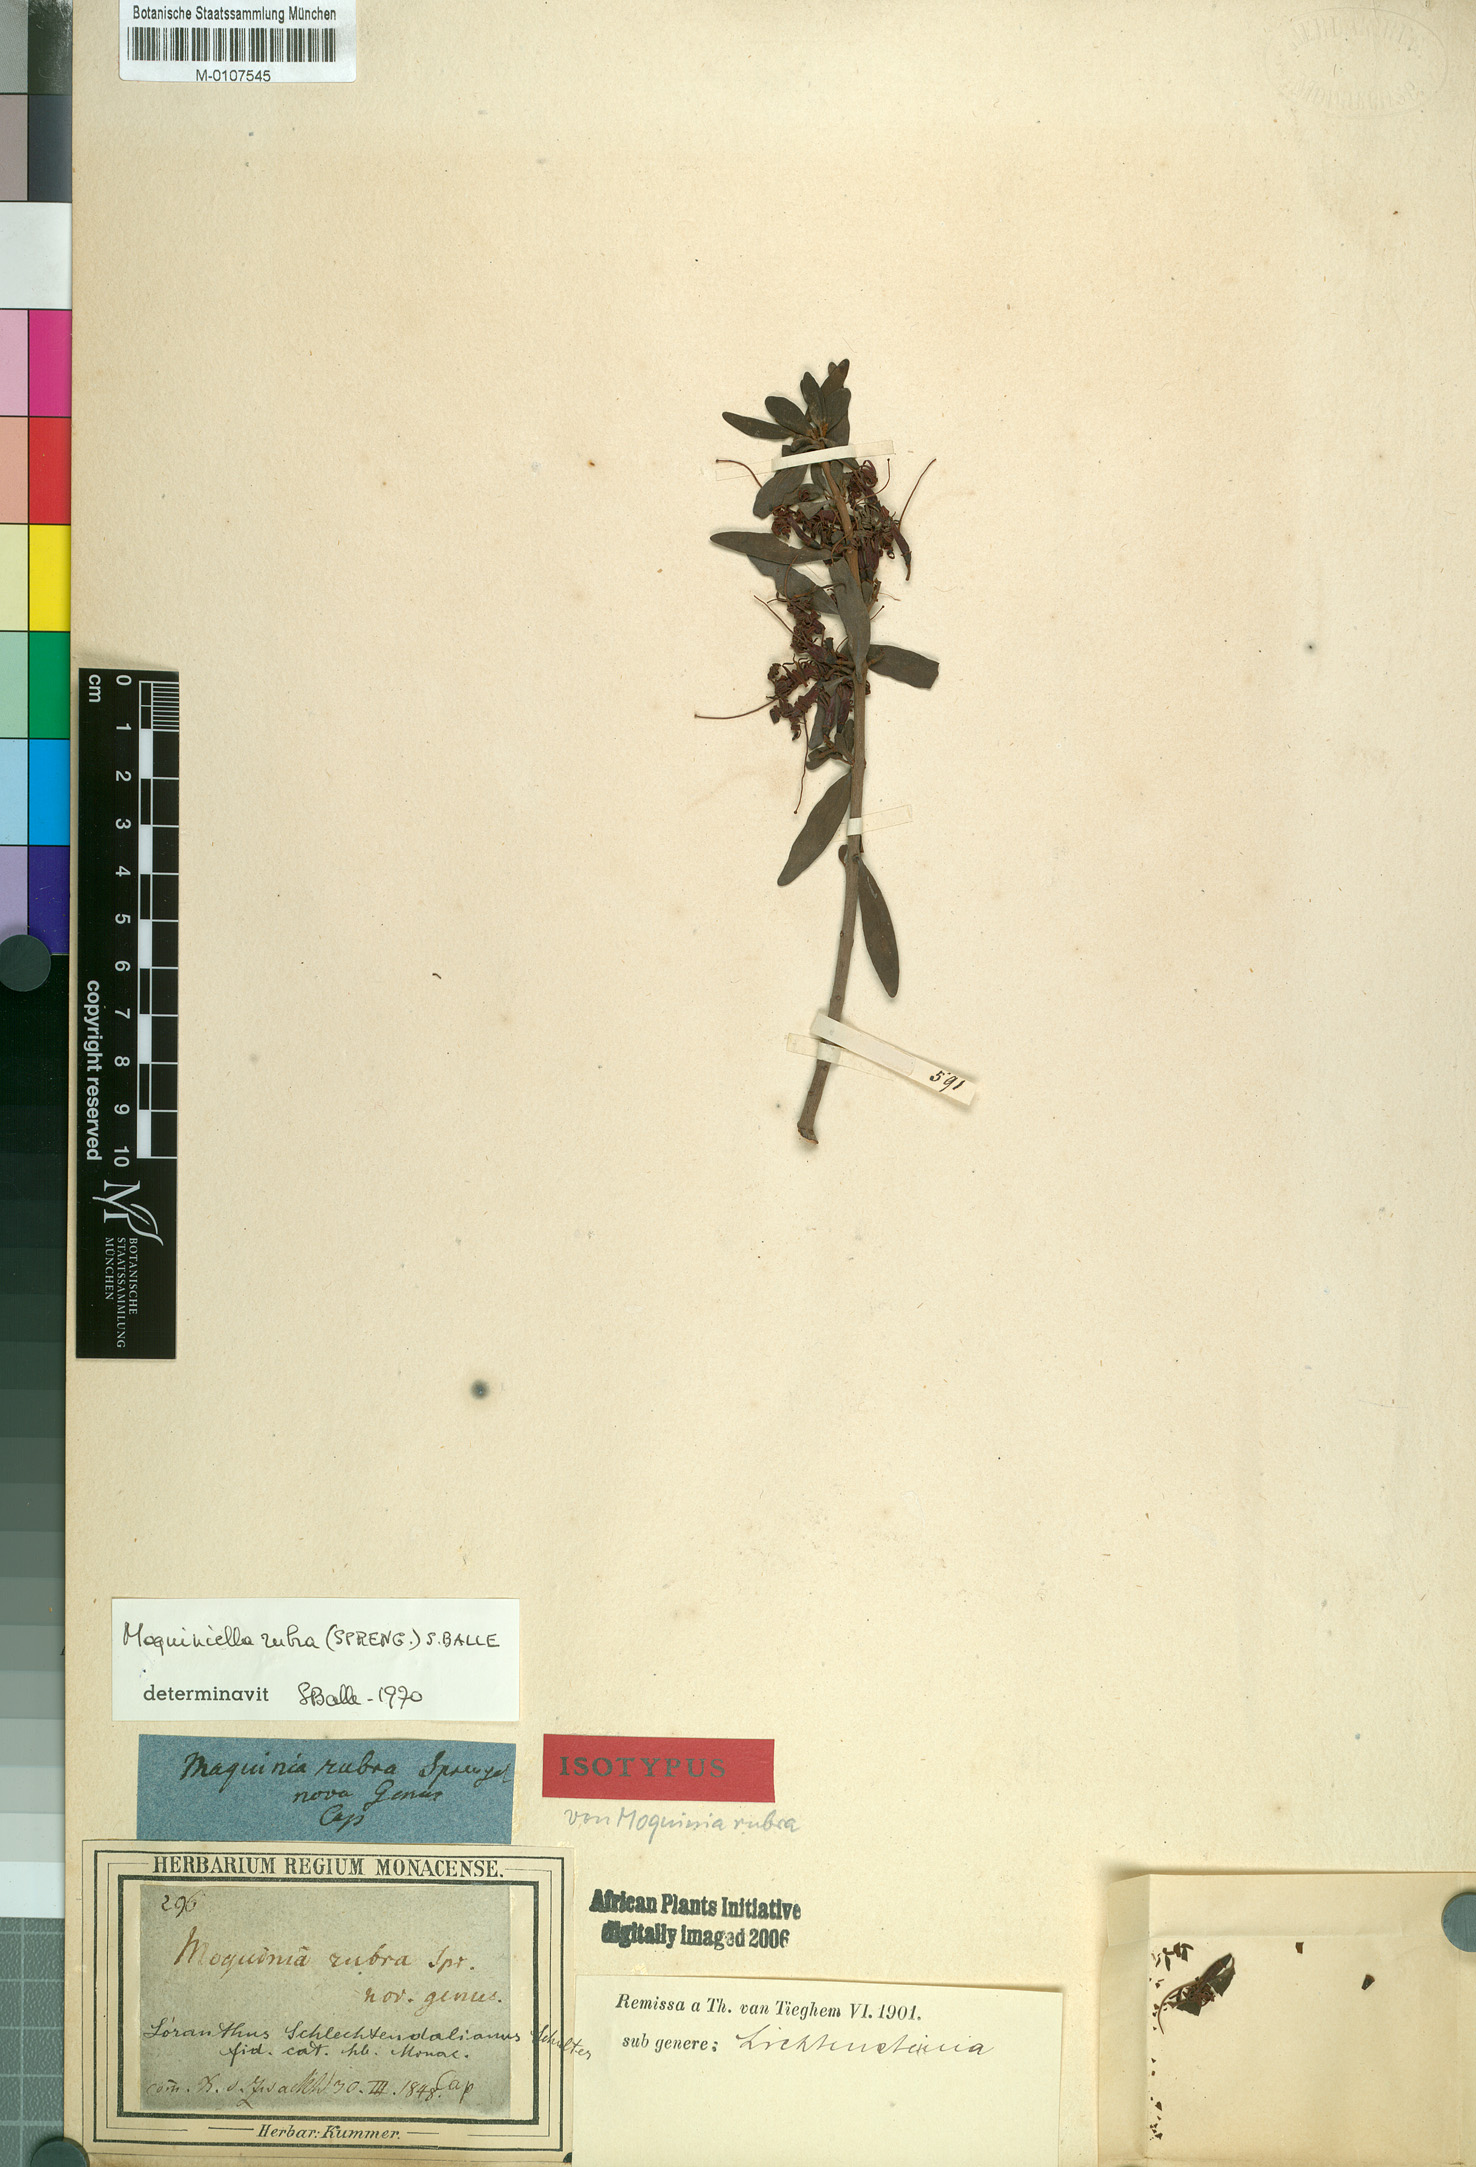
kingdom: Plantae
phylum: Tracheophyta
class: Magnoliopsida
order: Santalales
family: Loranthaceae
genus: Moquiniella
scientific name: Moquiniella rubra
